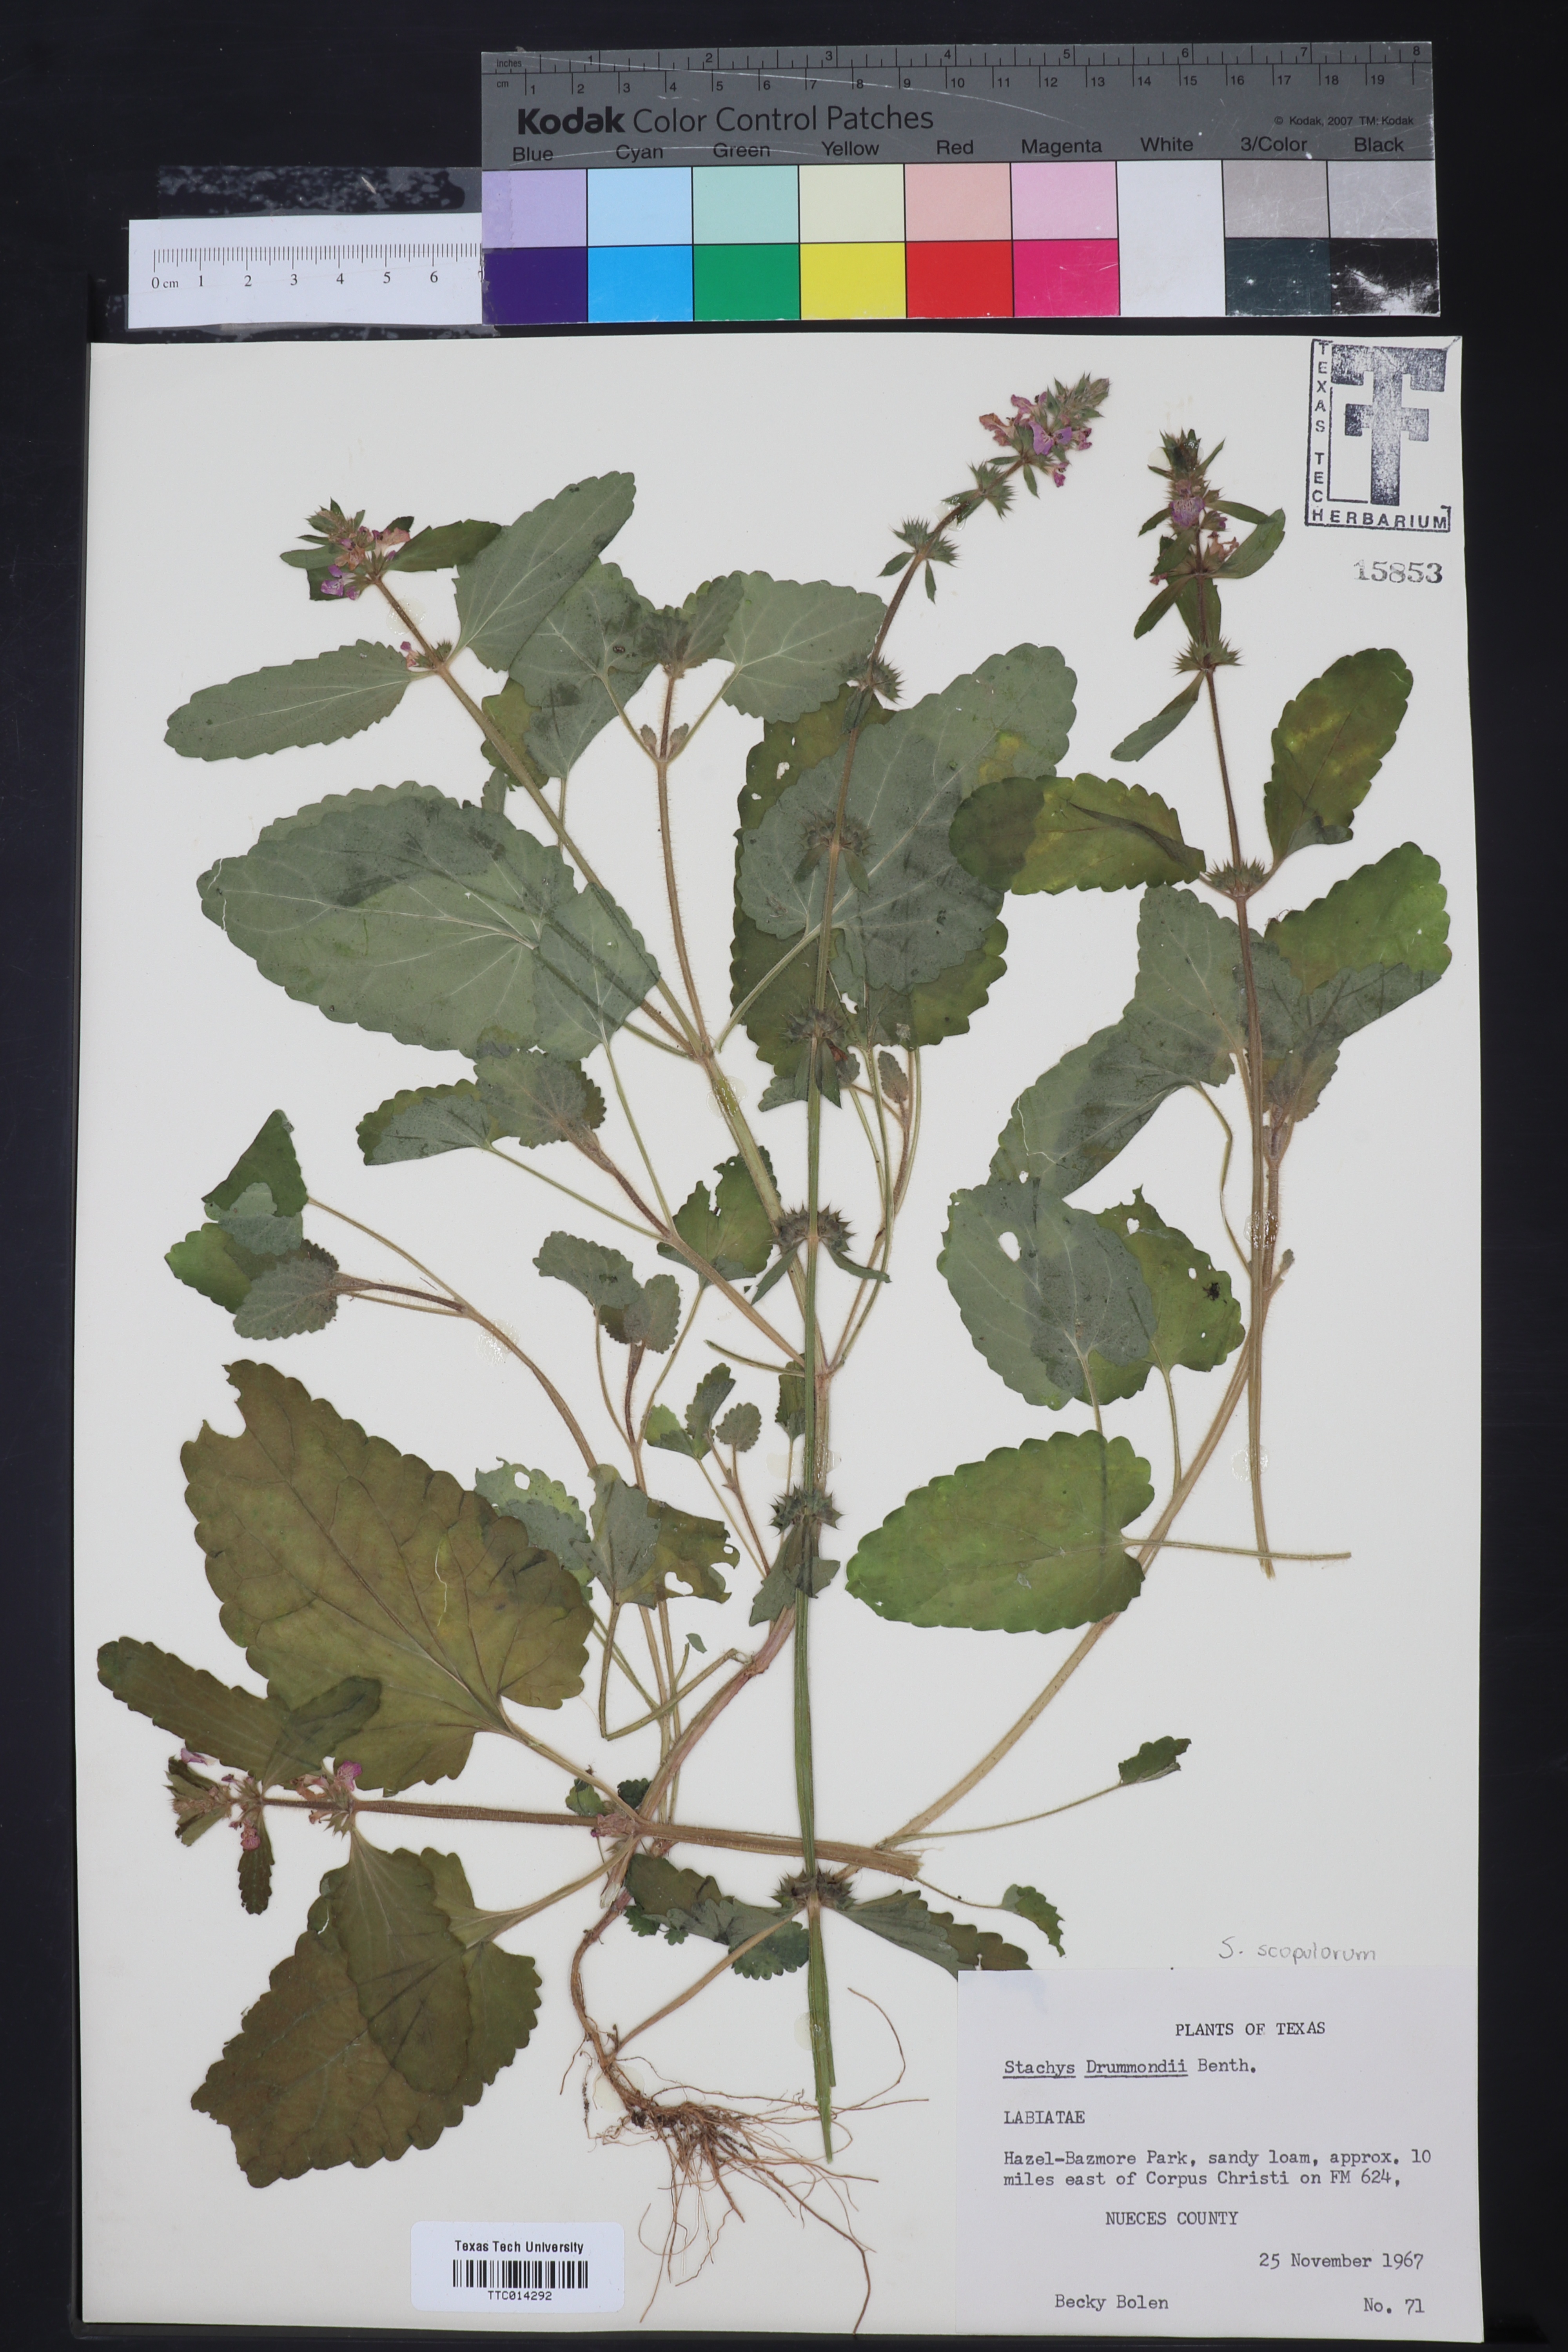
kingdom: Plantae
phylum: Tracheophyta
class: Magnoliopsida
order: Lamiales
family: Lamiaceae
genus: Stachys
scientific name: Stachys drummondii
